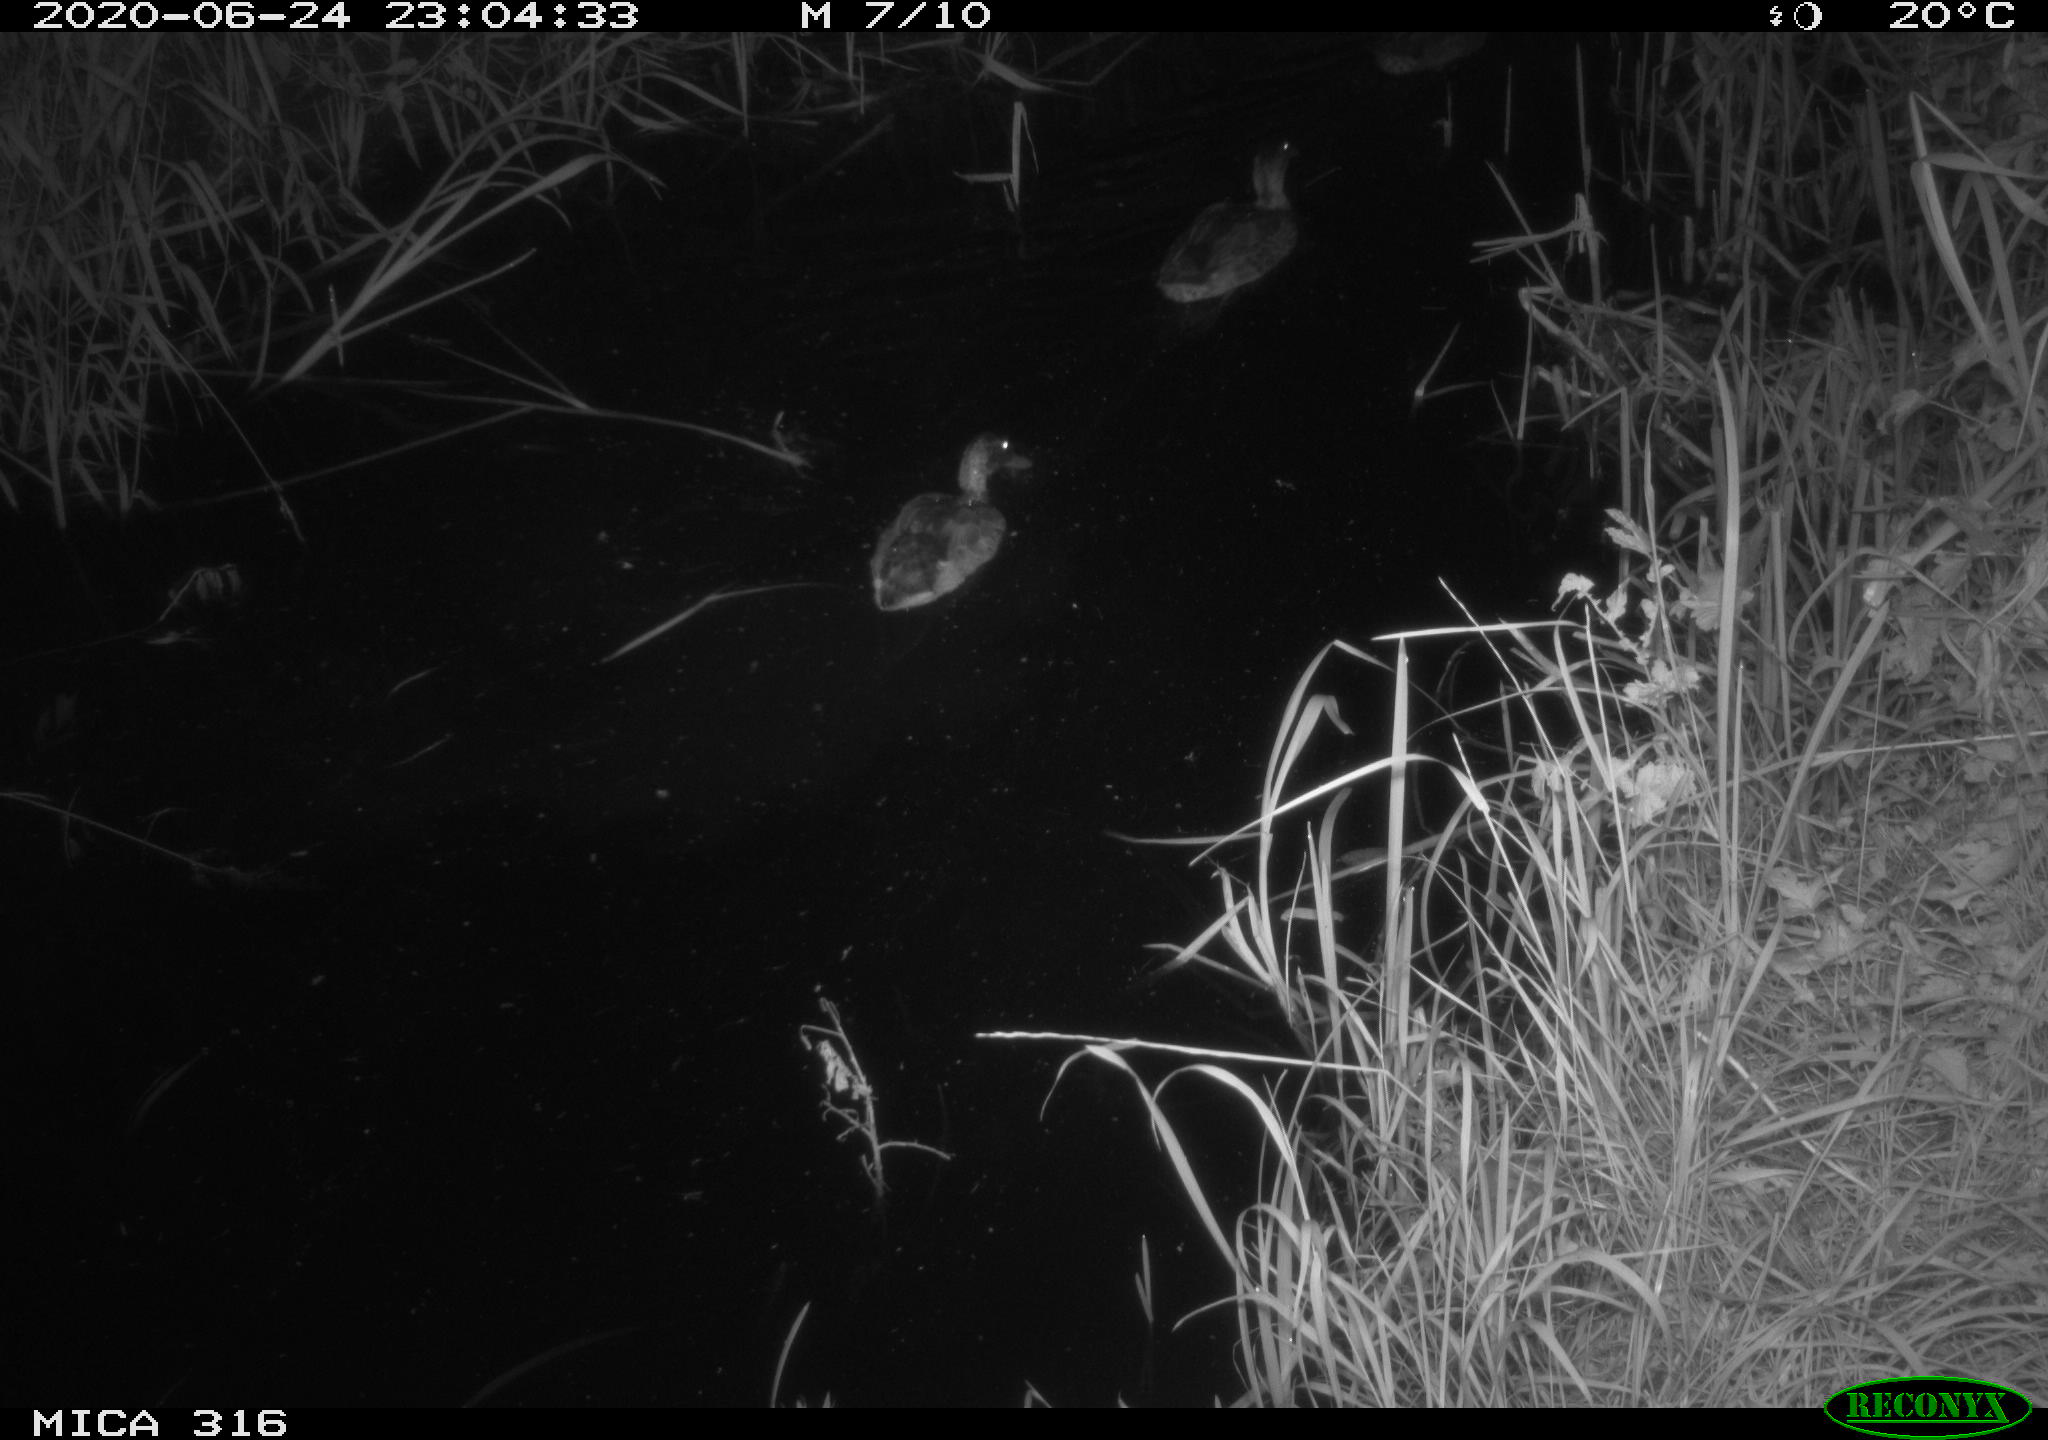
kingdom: Animalia
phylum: Chordata
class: Aves
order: Anseriformes
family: Anatidae
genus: Anas
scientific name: Anas platyrhynchos
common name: Mallard
